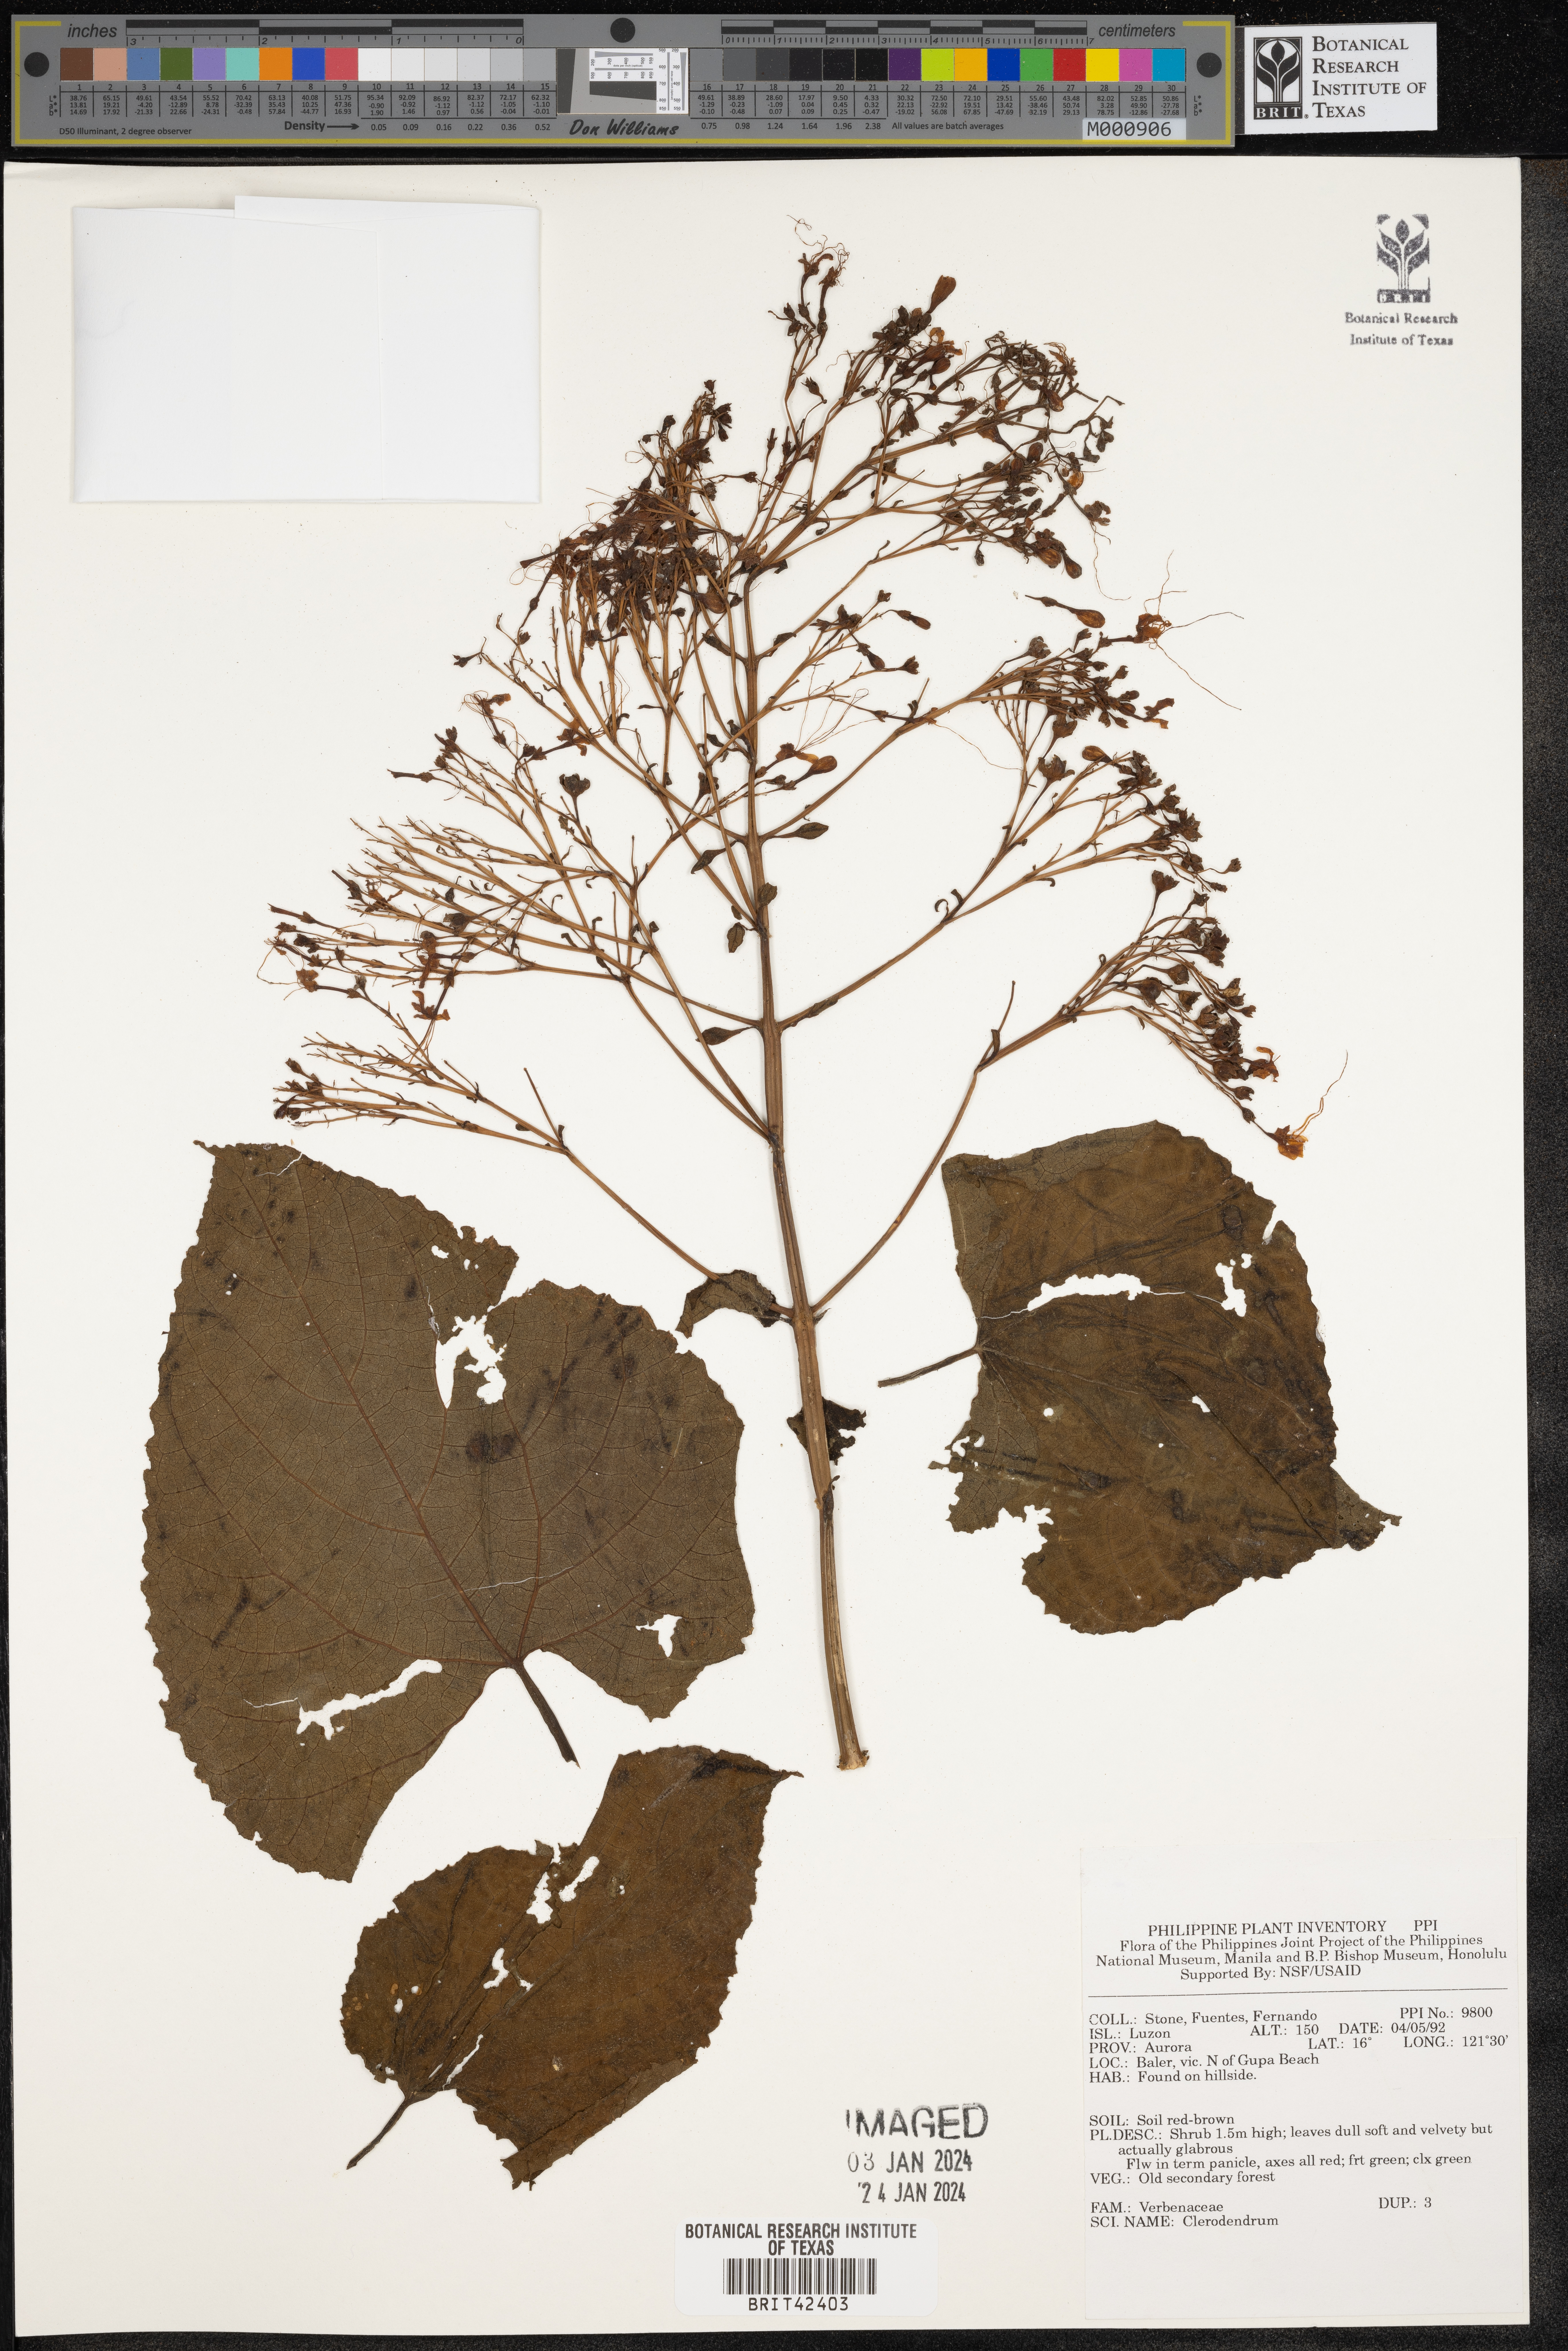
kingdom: Plantae
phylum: Tracheophyta
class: Magnoliopsida
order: Lamiales
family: Lamiaceae
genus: Clerodendrum
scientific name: Clerodendrum
